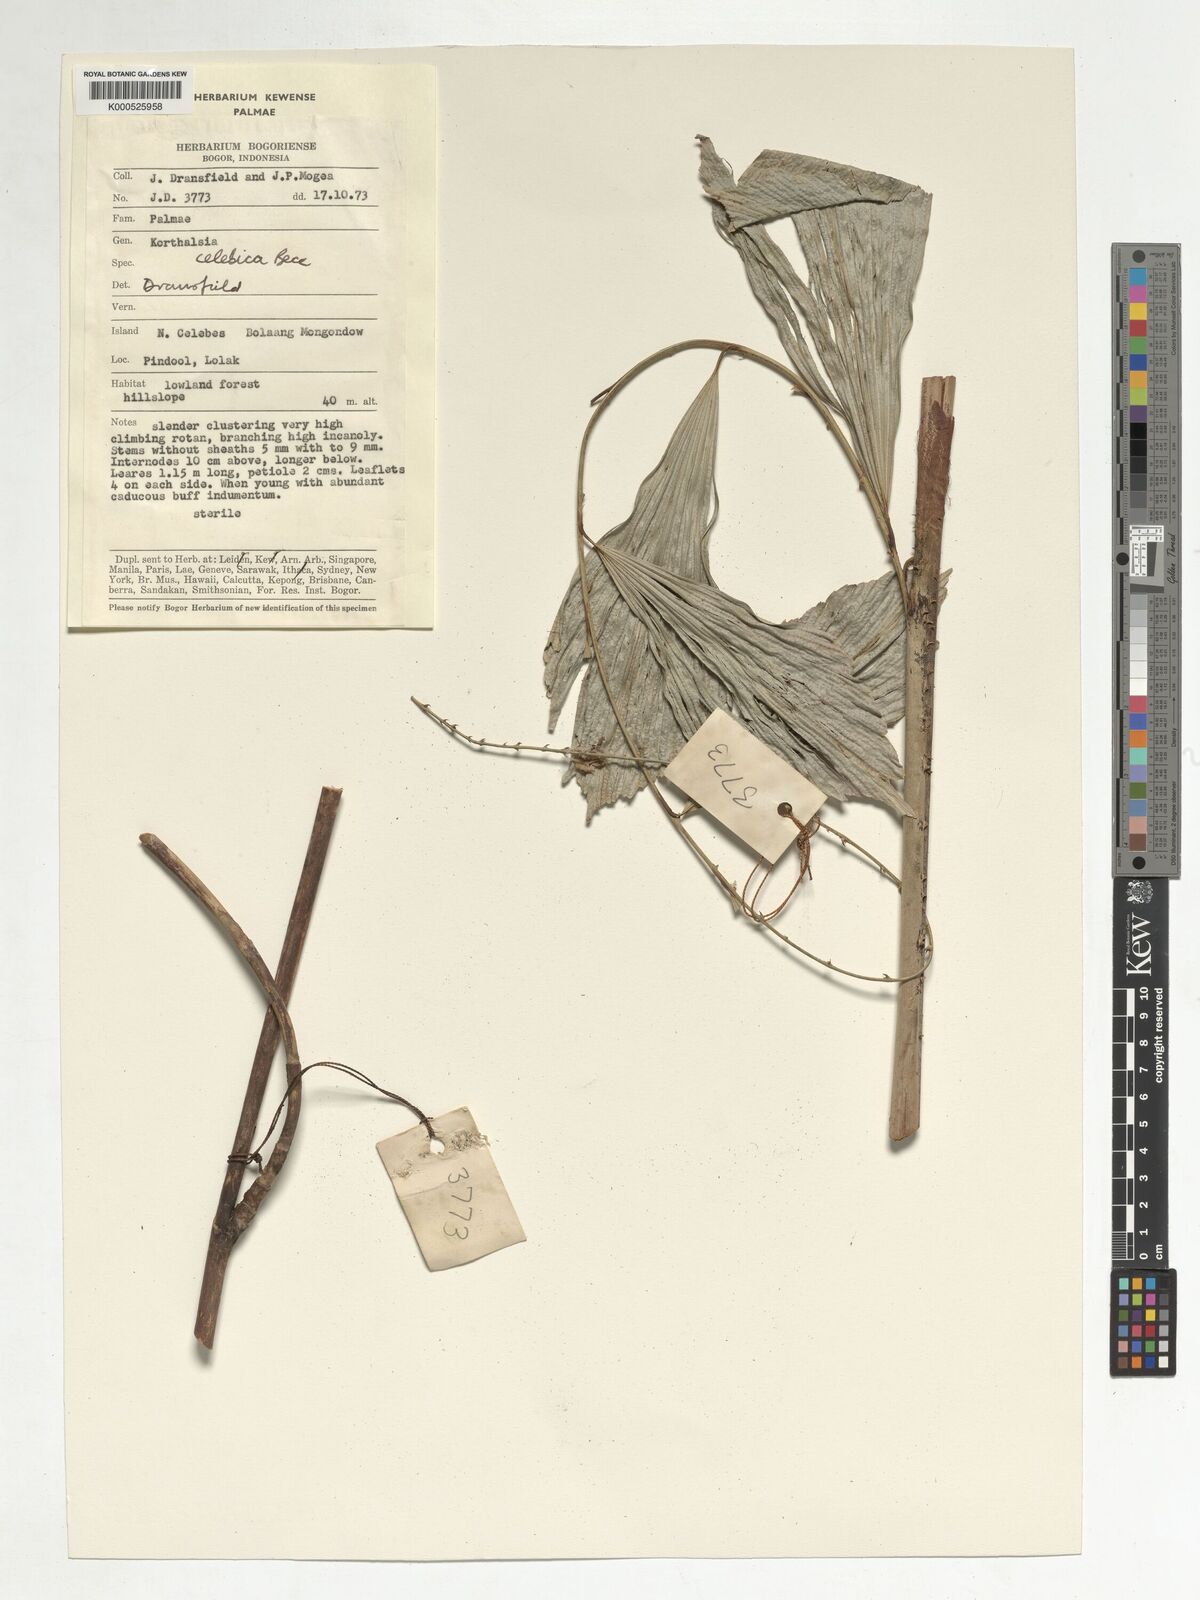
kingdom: Plantae
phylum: Tracheophyta
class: Liliopsida
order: Arecales
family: Arecaceae
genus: Korthalsia
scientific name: Korthalsia celebica
